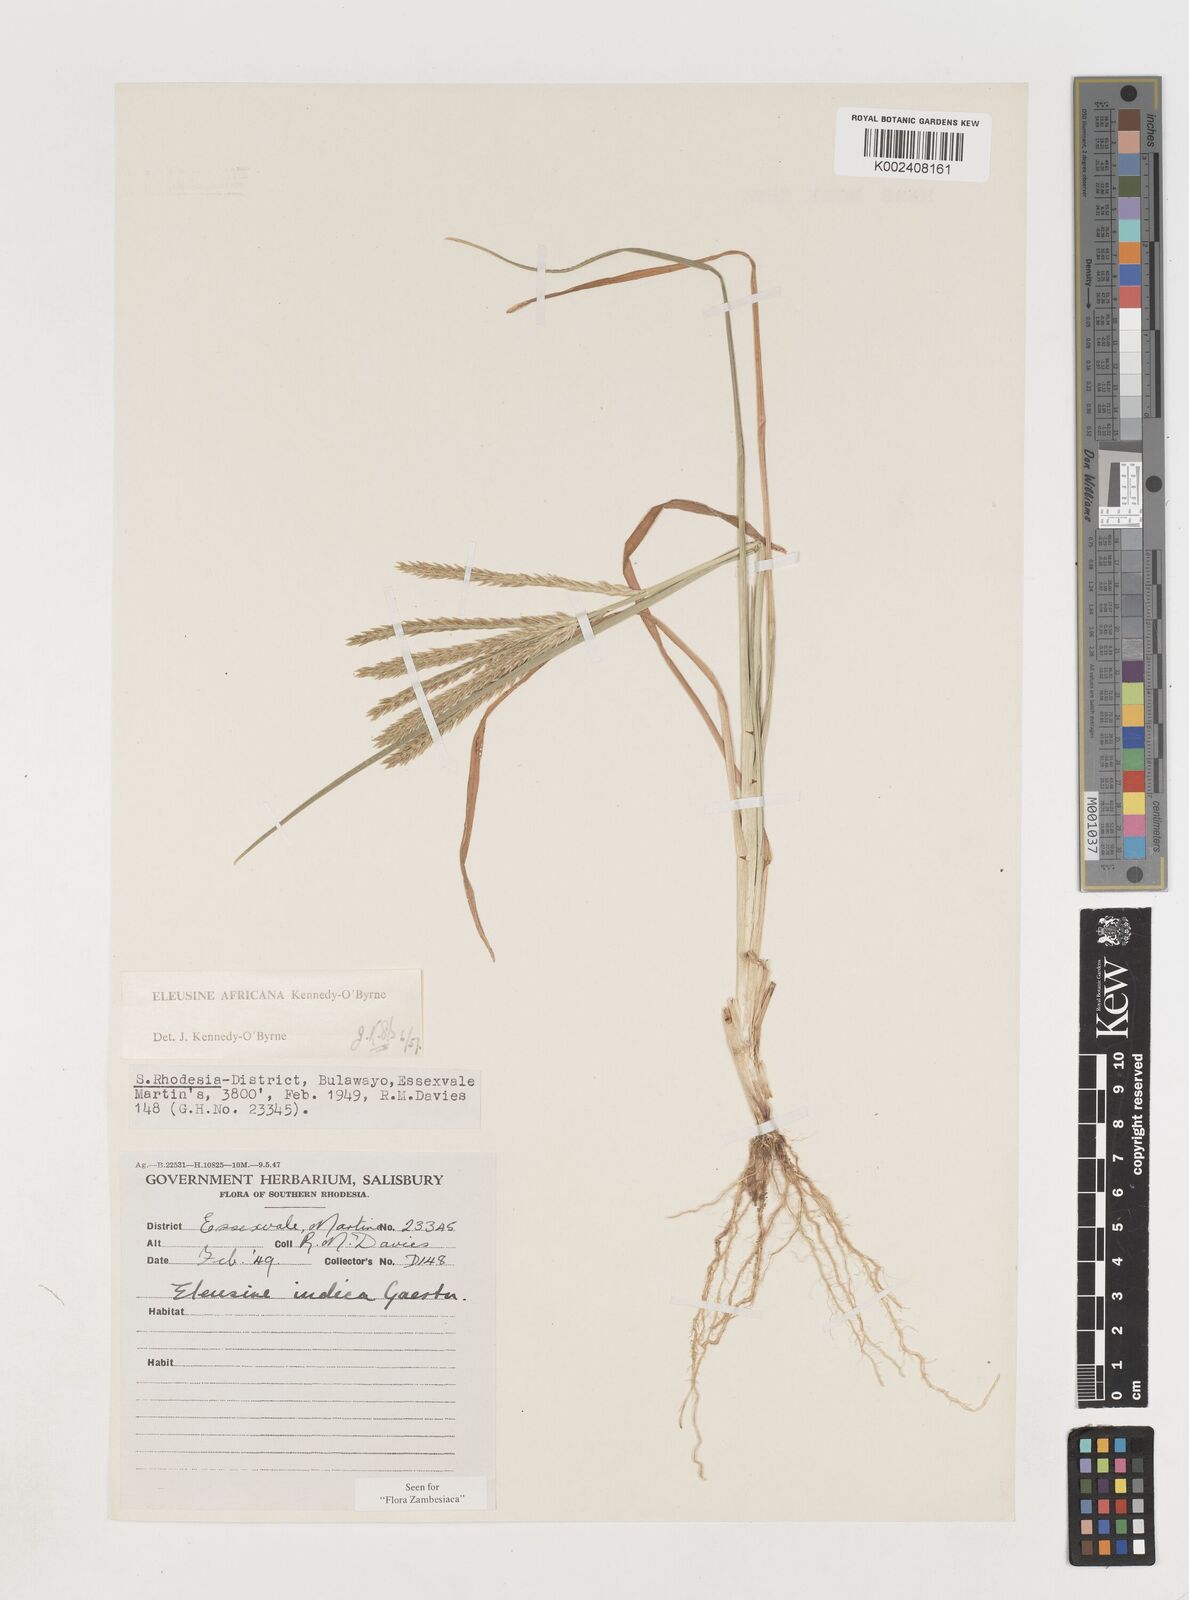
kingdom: Plantae
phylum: Tracheophyta
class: Liliopsida
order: Poales
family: Poaceae
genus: Eleusine
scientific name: Eleusine africana
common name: Wild african finger millet
